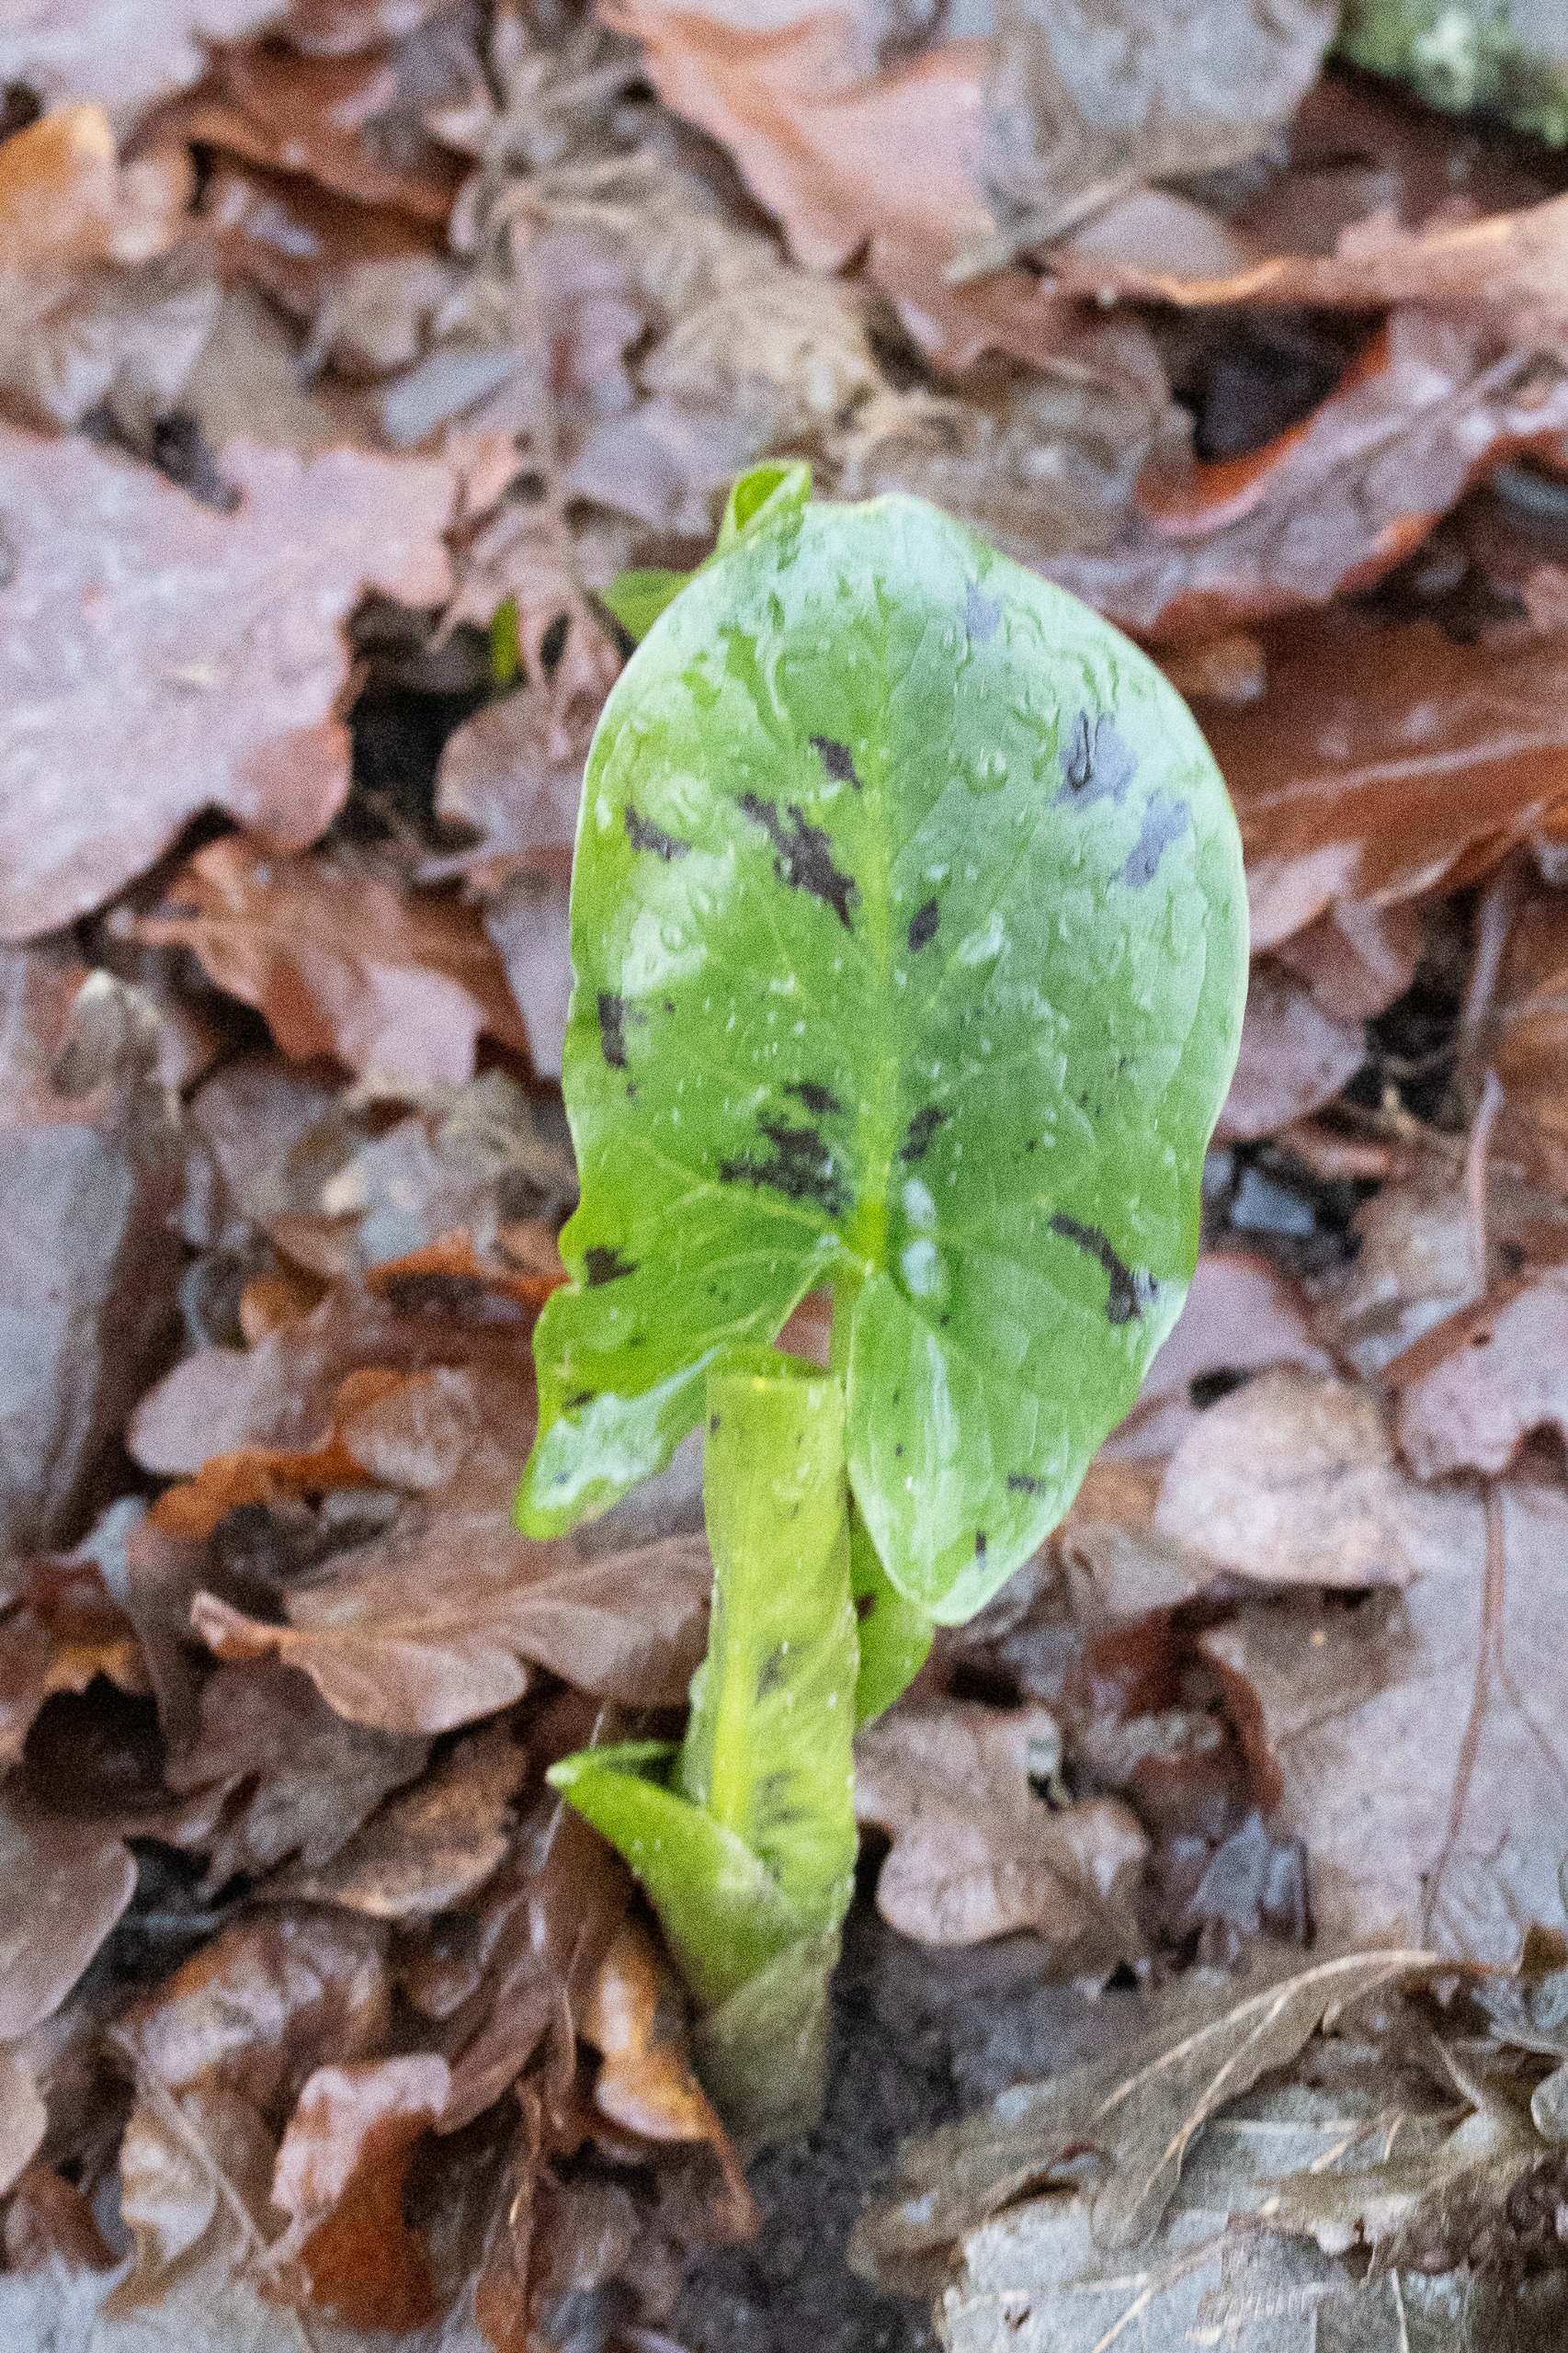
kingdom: Plantae
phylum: Tracheophyta
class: Liliopsida
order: Alismatales
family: Araceae
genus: Arum
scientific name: Arum maculatum
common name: Plettet arum
